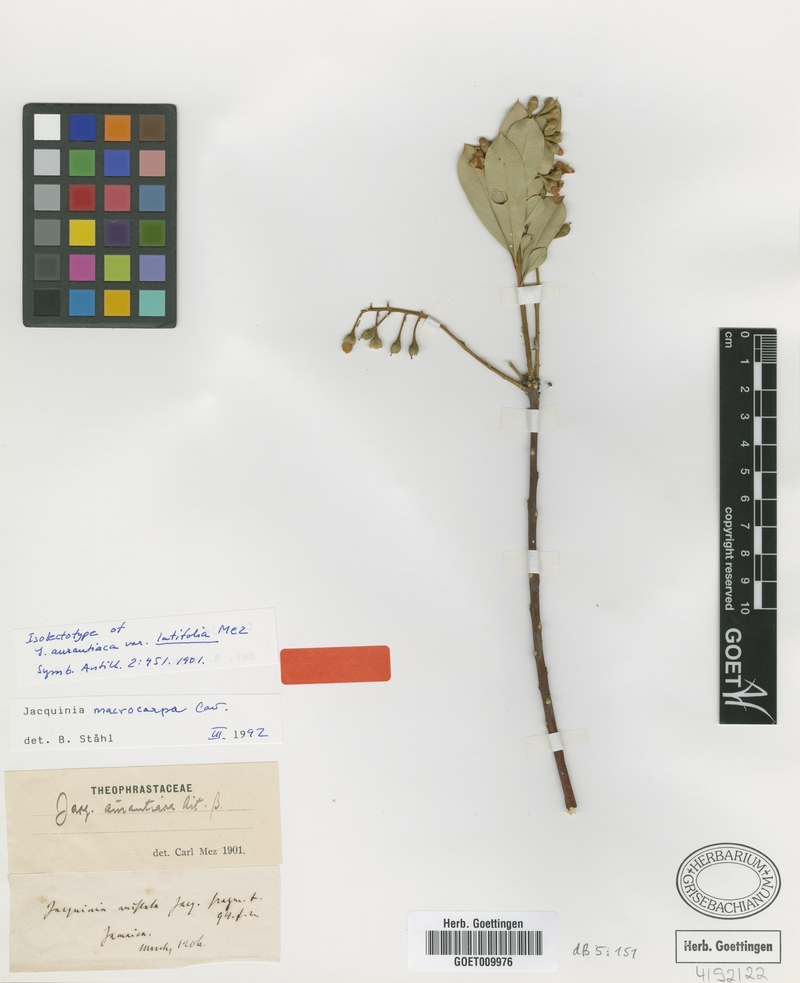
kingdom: Plantae
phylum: Tracheophyta
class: Magnoliopsida
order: Ericales
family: Primulaceae
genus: Bonellia
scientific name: Bonellia macrocarpa
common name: Primrose
